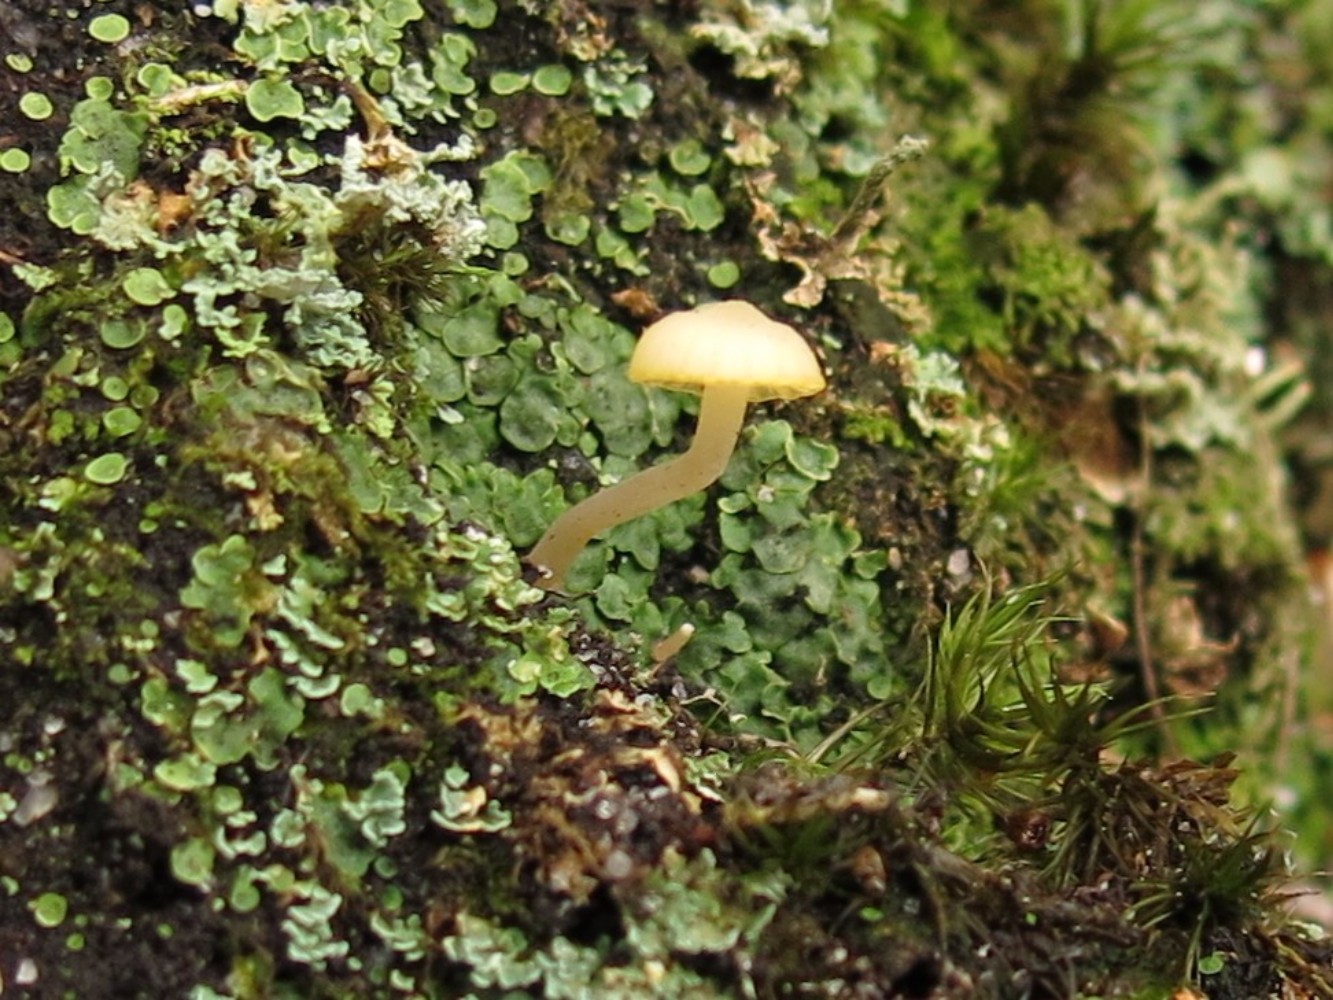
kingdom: Fungi
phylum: Basidiomycota
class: Agaricomycetes
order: Agaricales
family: Hygrophoraceae
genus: Lichenomphalia
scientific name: Lichenomphalia hudsoniana
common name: thallus-lavhat
